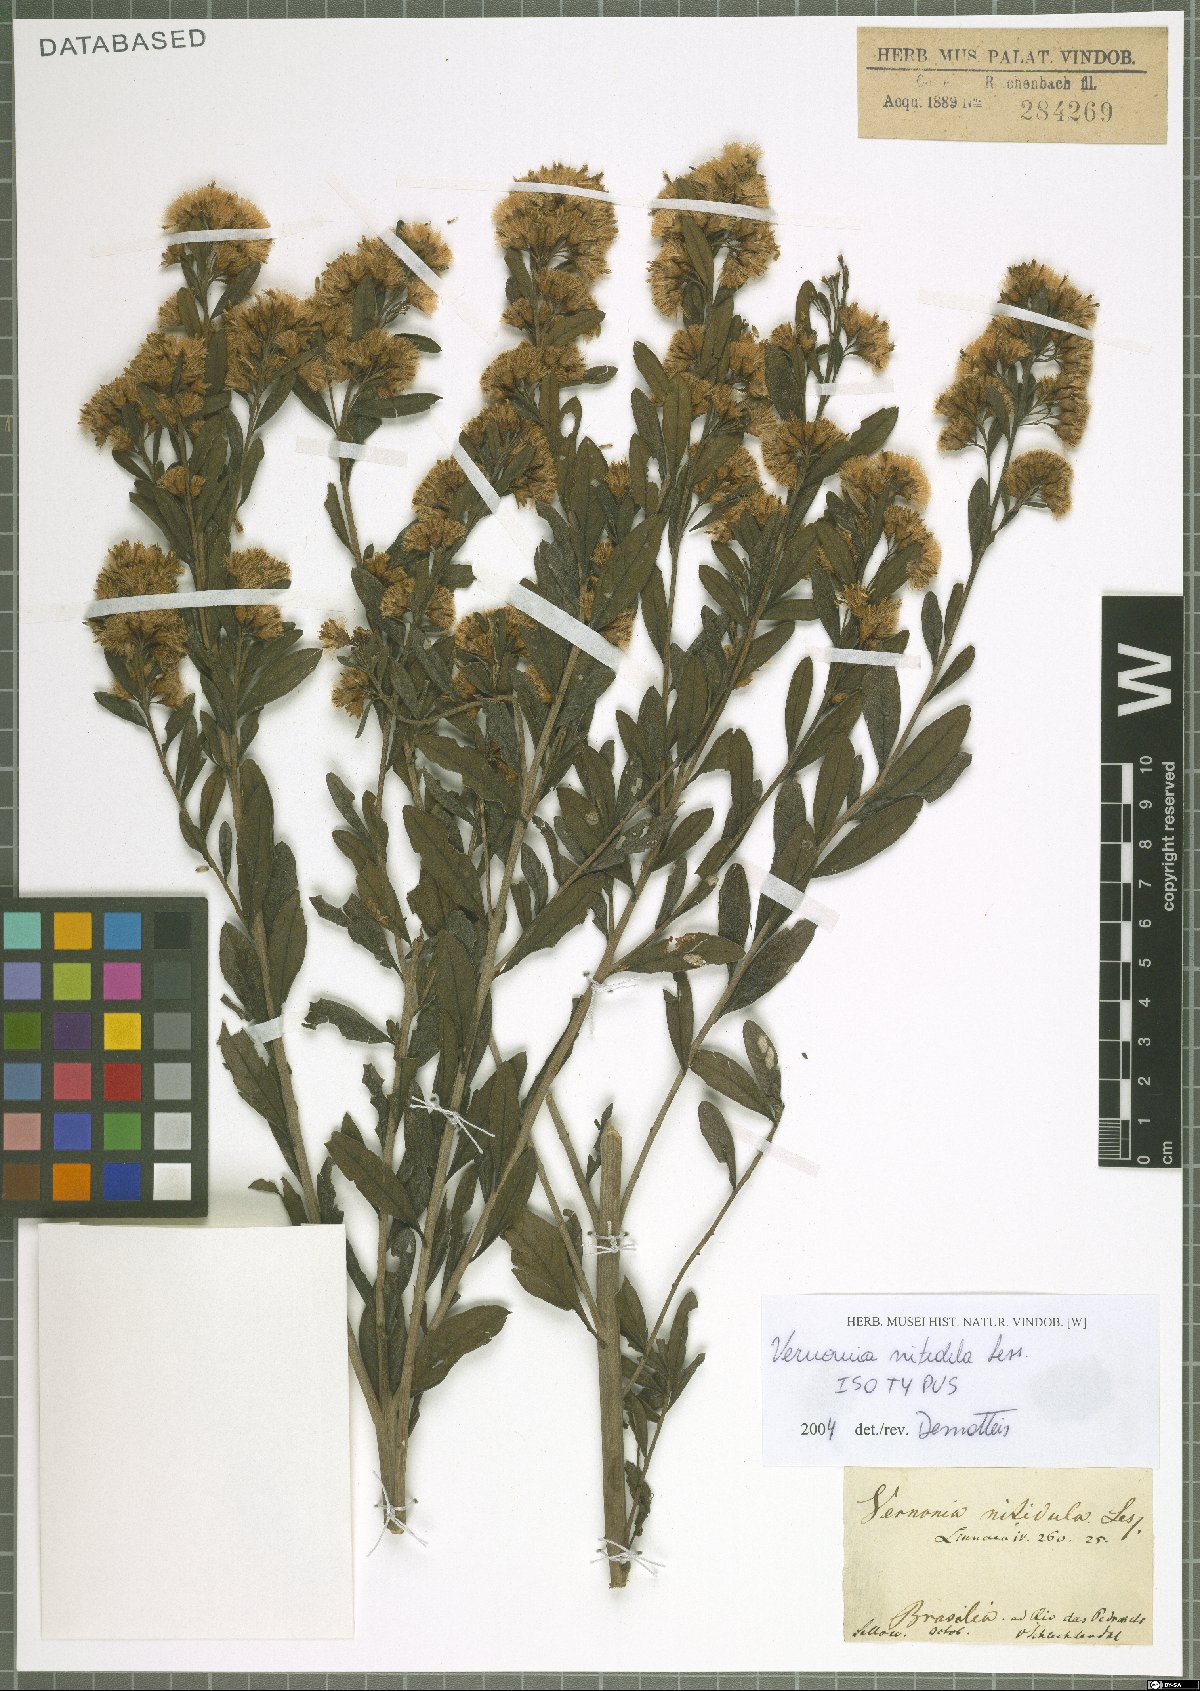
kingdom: Plantae
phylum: Tracheophyta
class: Magnoliopsida
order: Asterales
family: Asteraceae
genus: Vernonanthura
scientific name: Vernonanthura montevidensis
